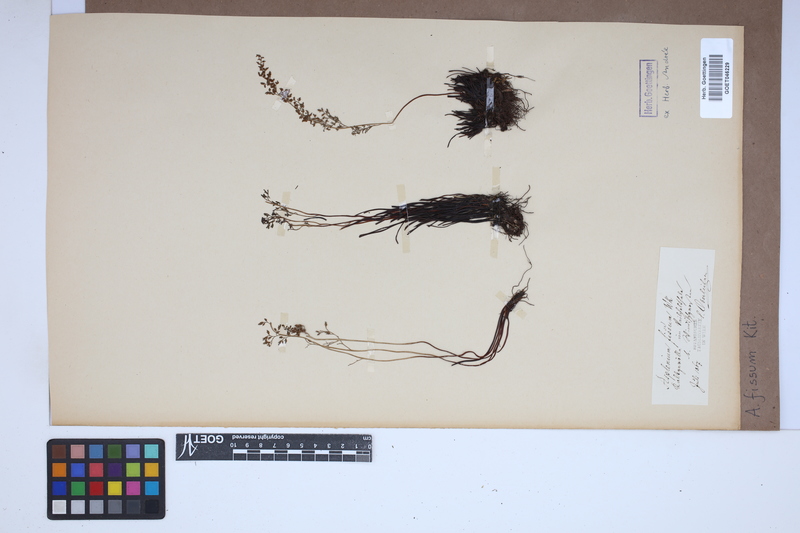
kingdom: Plantae
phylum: Tracheophyta
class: Polypodiopsida
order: Polypodiales
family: Aspleniaceae
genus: Asplenium
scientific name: Asplenium fissum
